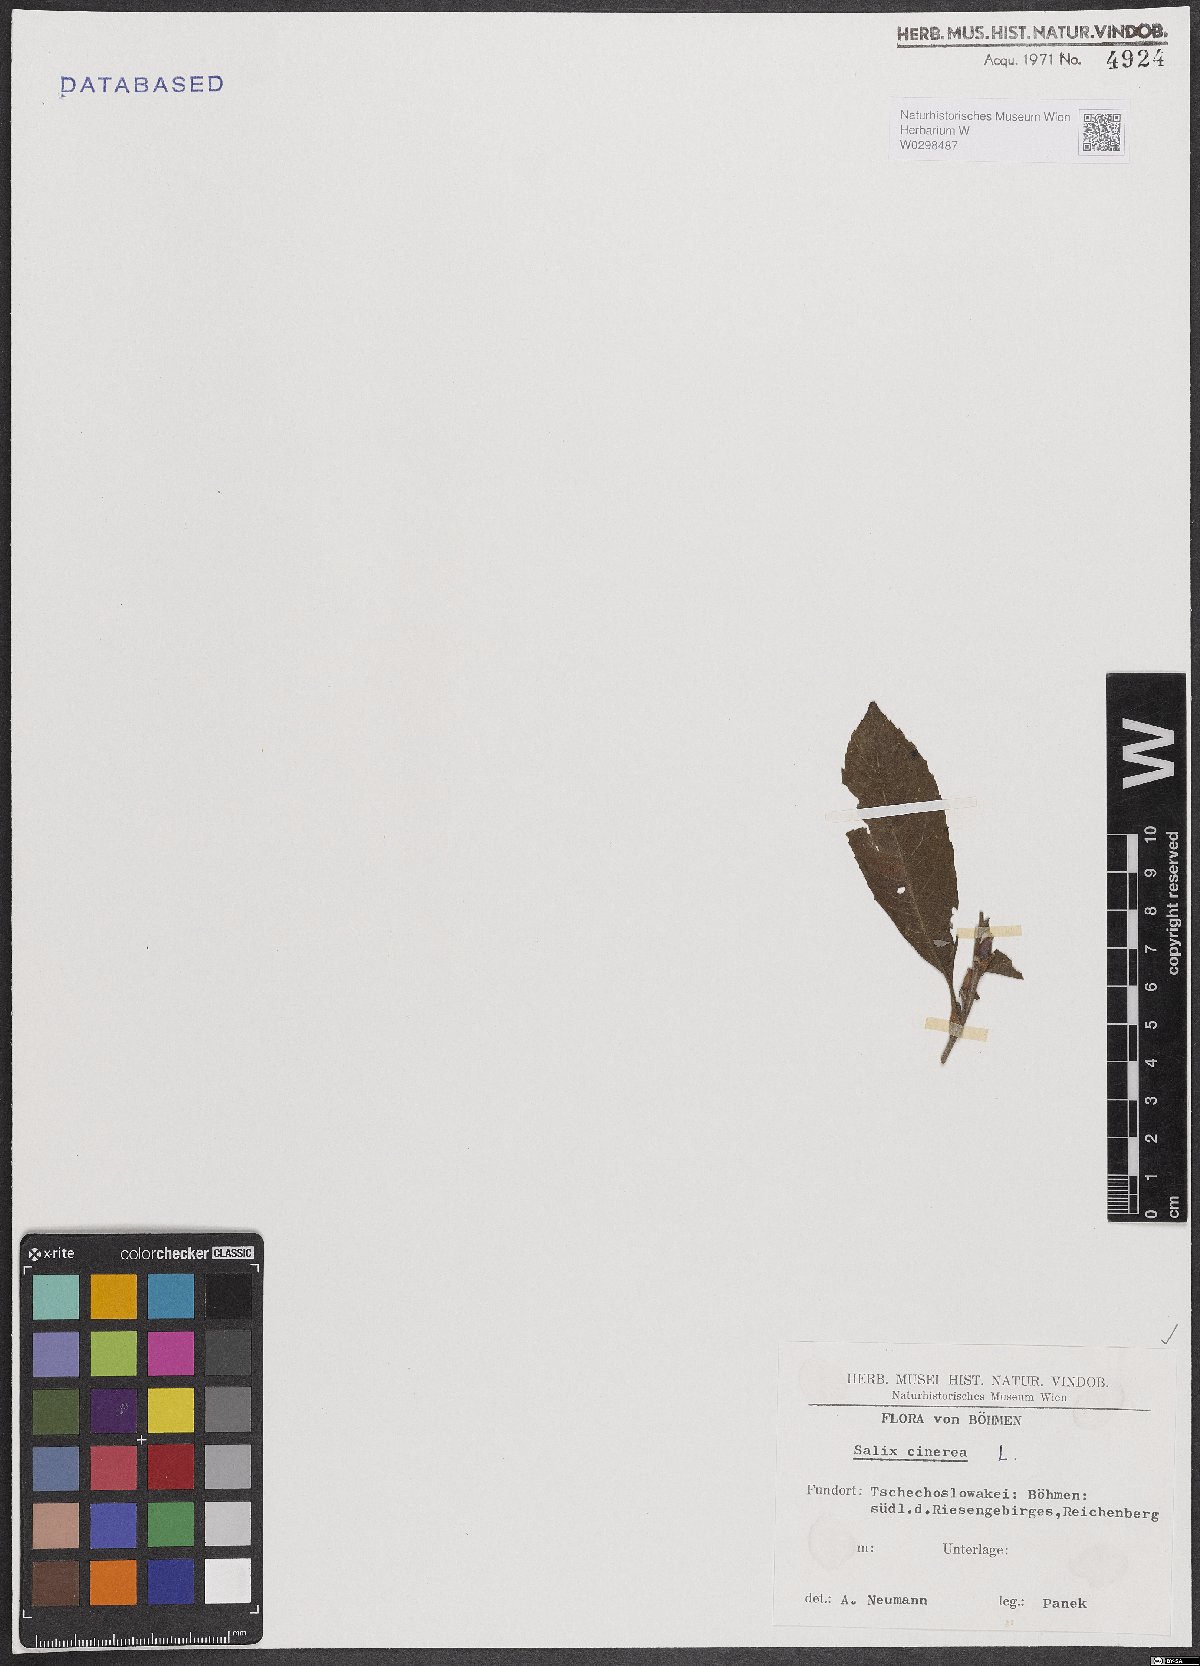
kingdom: Plantae
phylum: Tracheophyta
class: Magnoliopsida
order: Malpighiales
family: Salicaceae
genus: Salix
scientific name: Salix cinerea
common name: Common sallow
